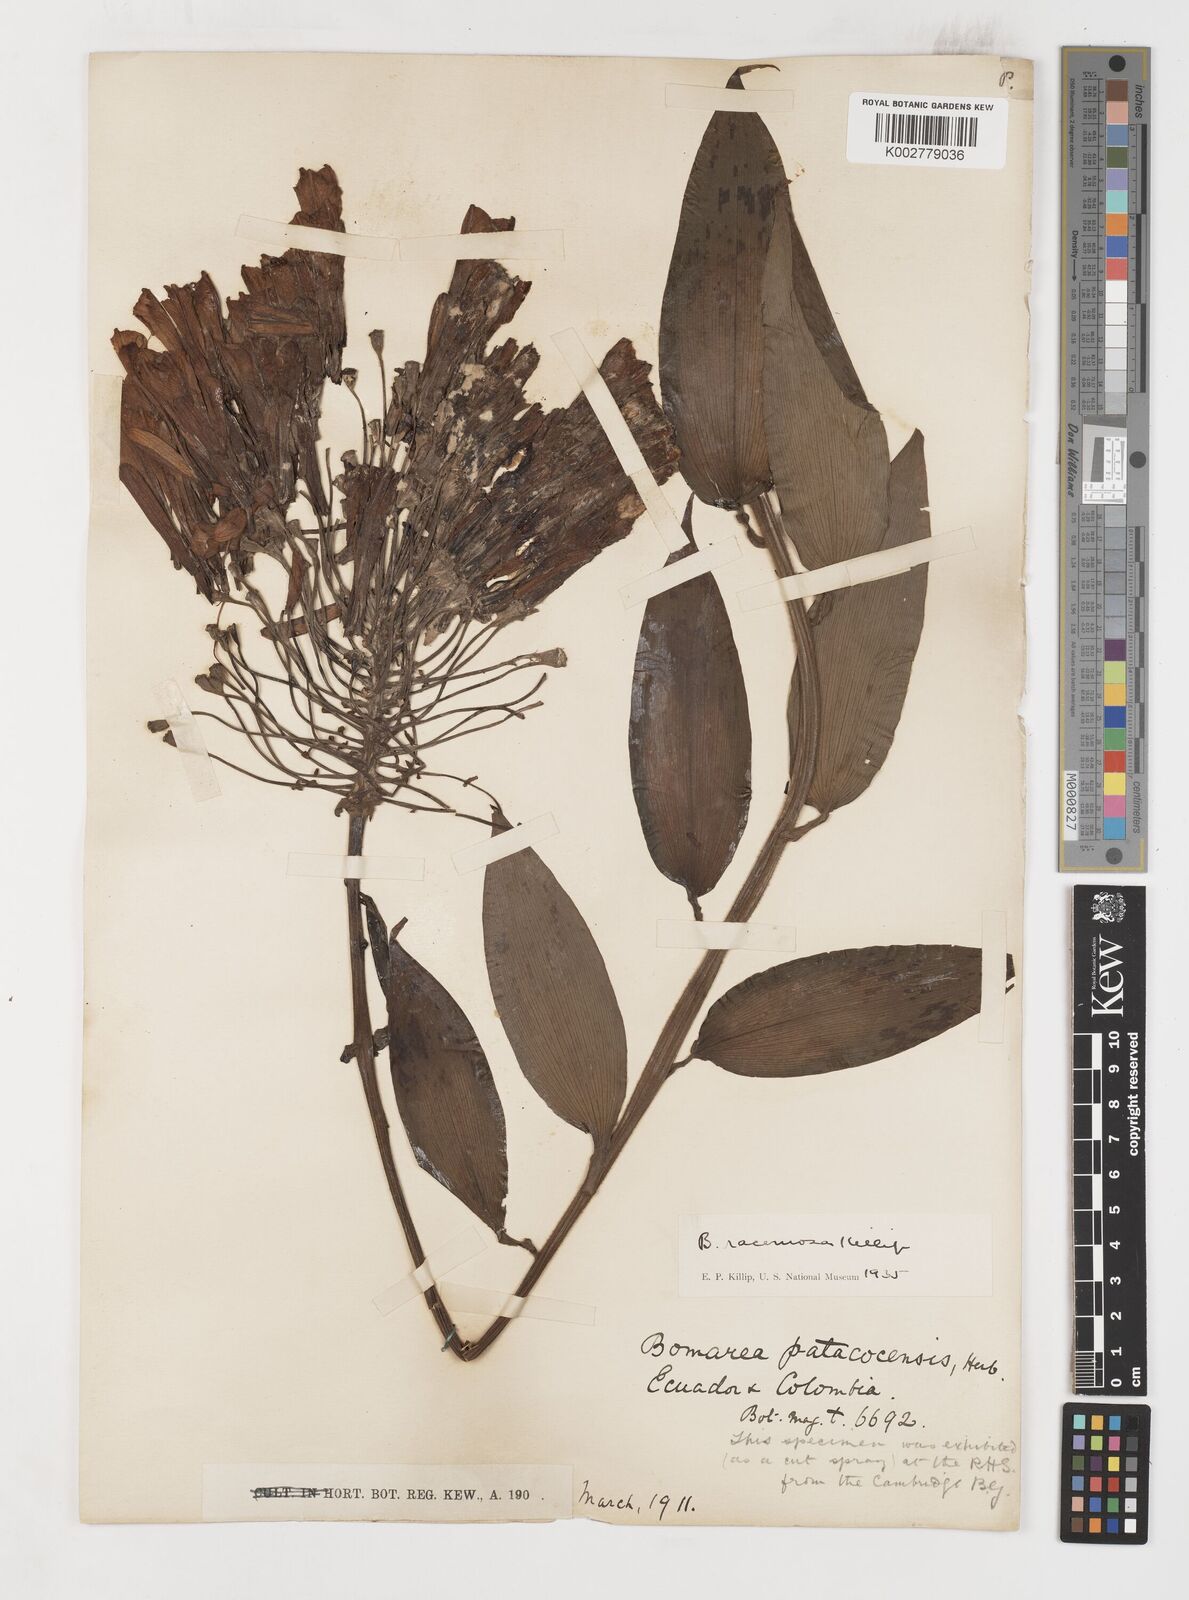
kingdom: Plantae
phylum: Tracheophyta
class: Liliopsida
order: Liliales
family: Alstroemeriaceae
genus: Bomarea
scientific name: Bomarea patinii
